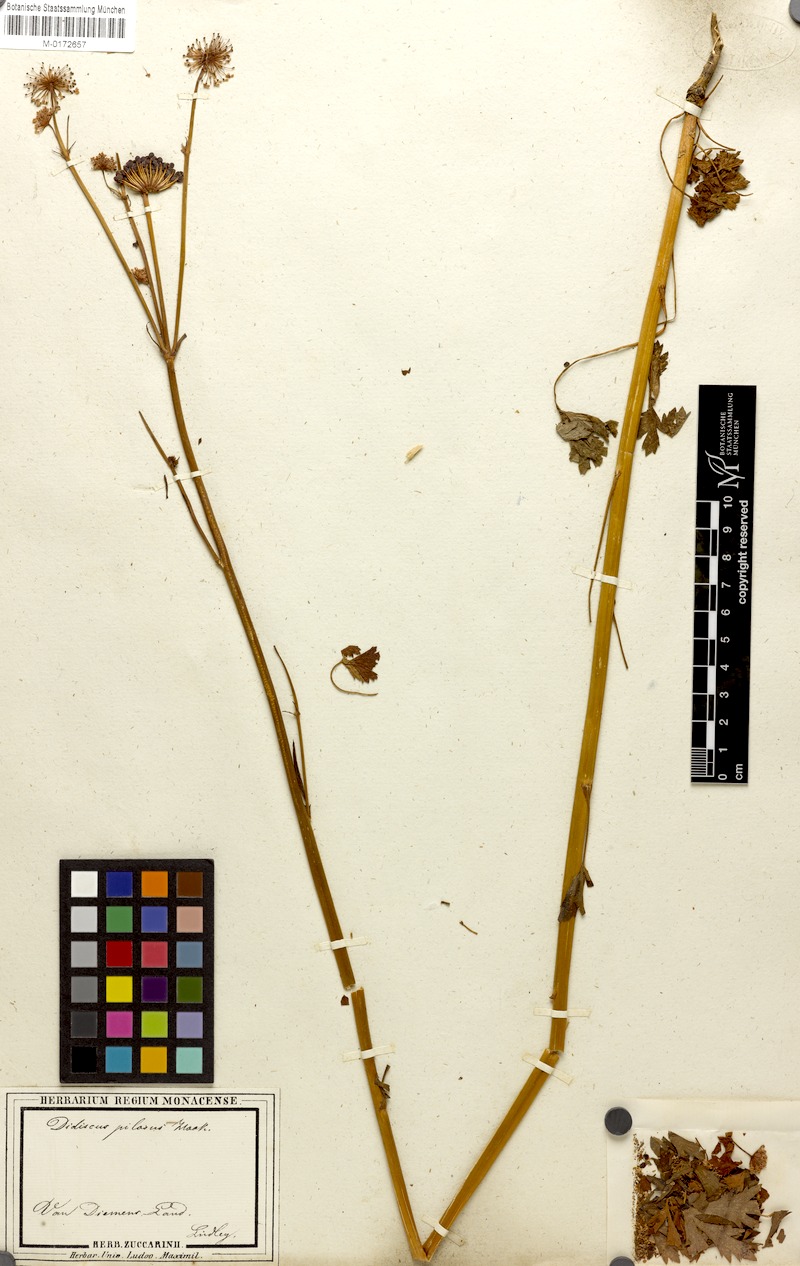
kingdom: Plantae
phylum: Tracheophyta
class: Magnoliopsida
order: Apiales
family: Araliaceae
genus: Trachymene
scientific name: Trachymene
